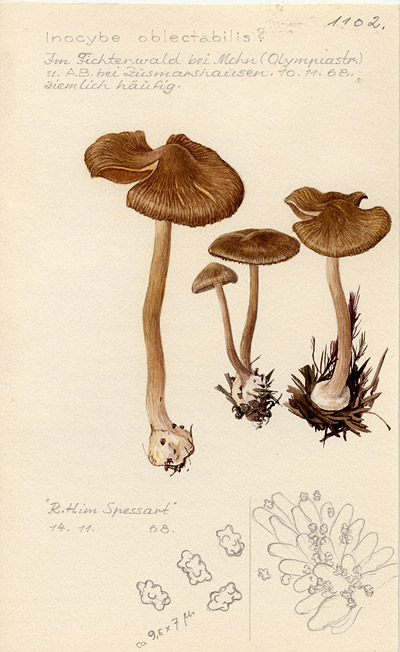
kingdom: Fungi
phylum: Basidiomycota
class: Agaricomycetes
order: Agaricales
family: Inocybaceae
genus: Inocybe
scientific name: Inocybe oblectabilis
